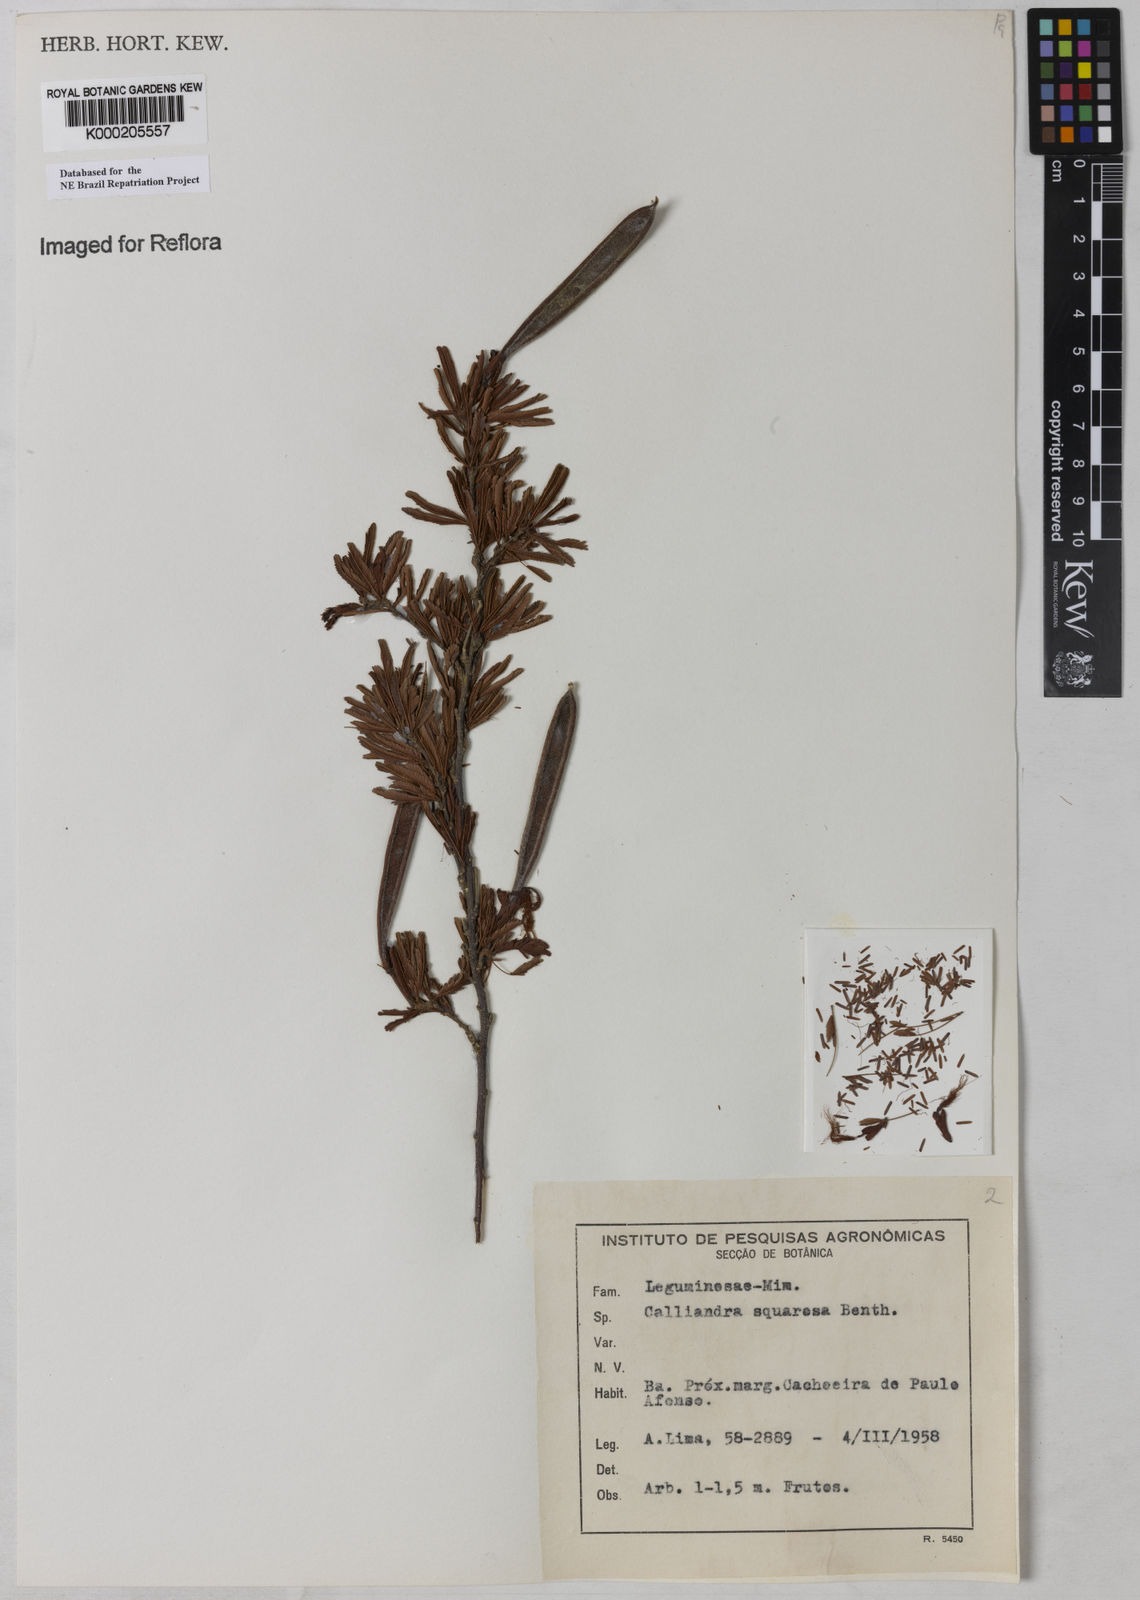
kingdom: Plantae
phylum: Tracheophyta
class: Magnoliopsida
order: Fabales
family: Fabaceae
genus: Calliandra
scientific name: Calliandra squarrosa
